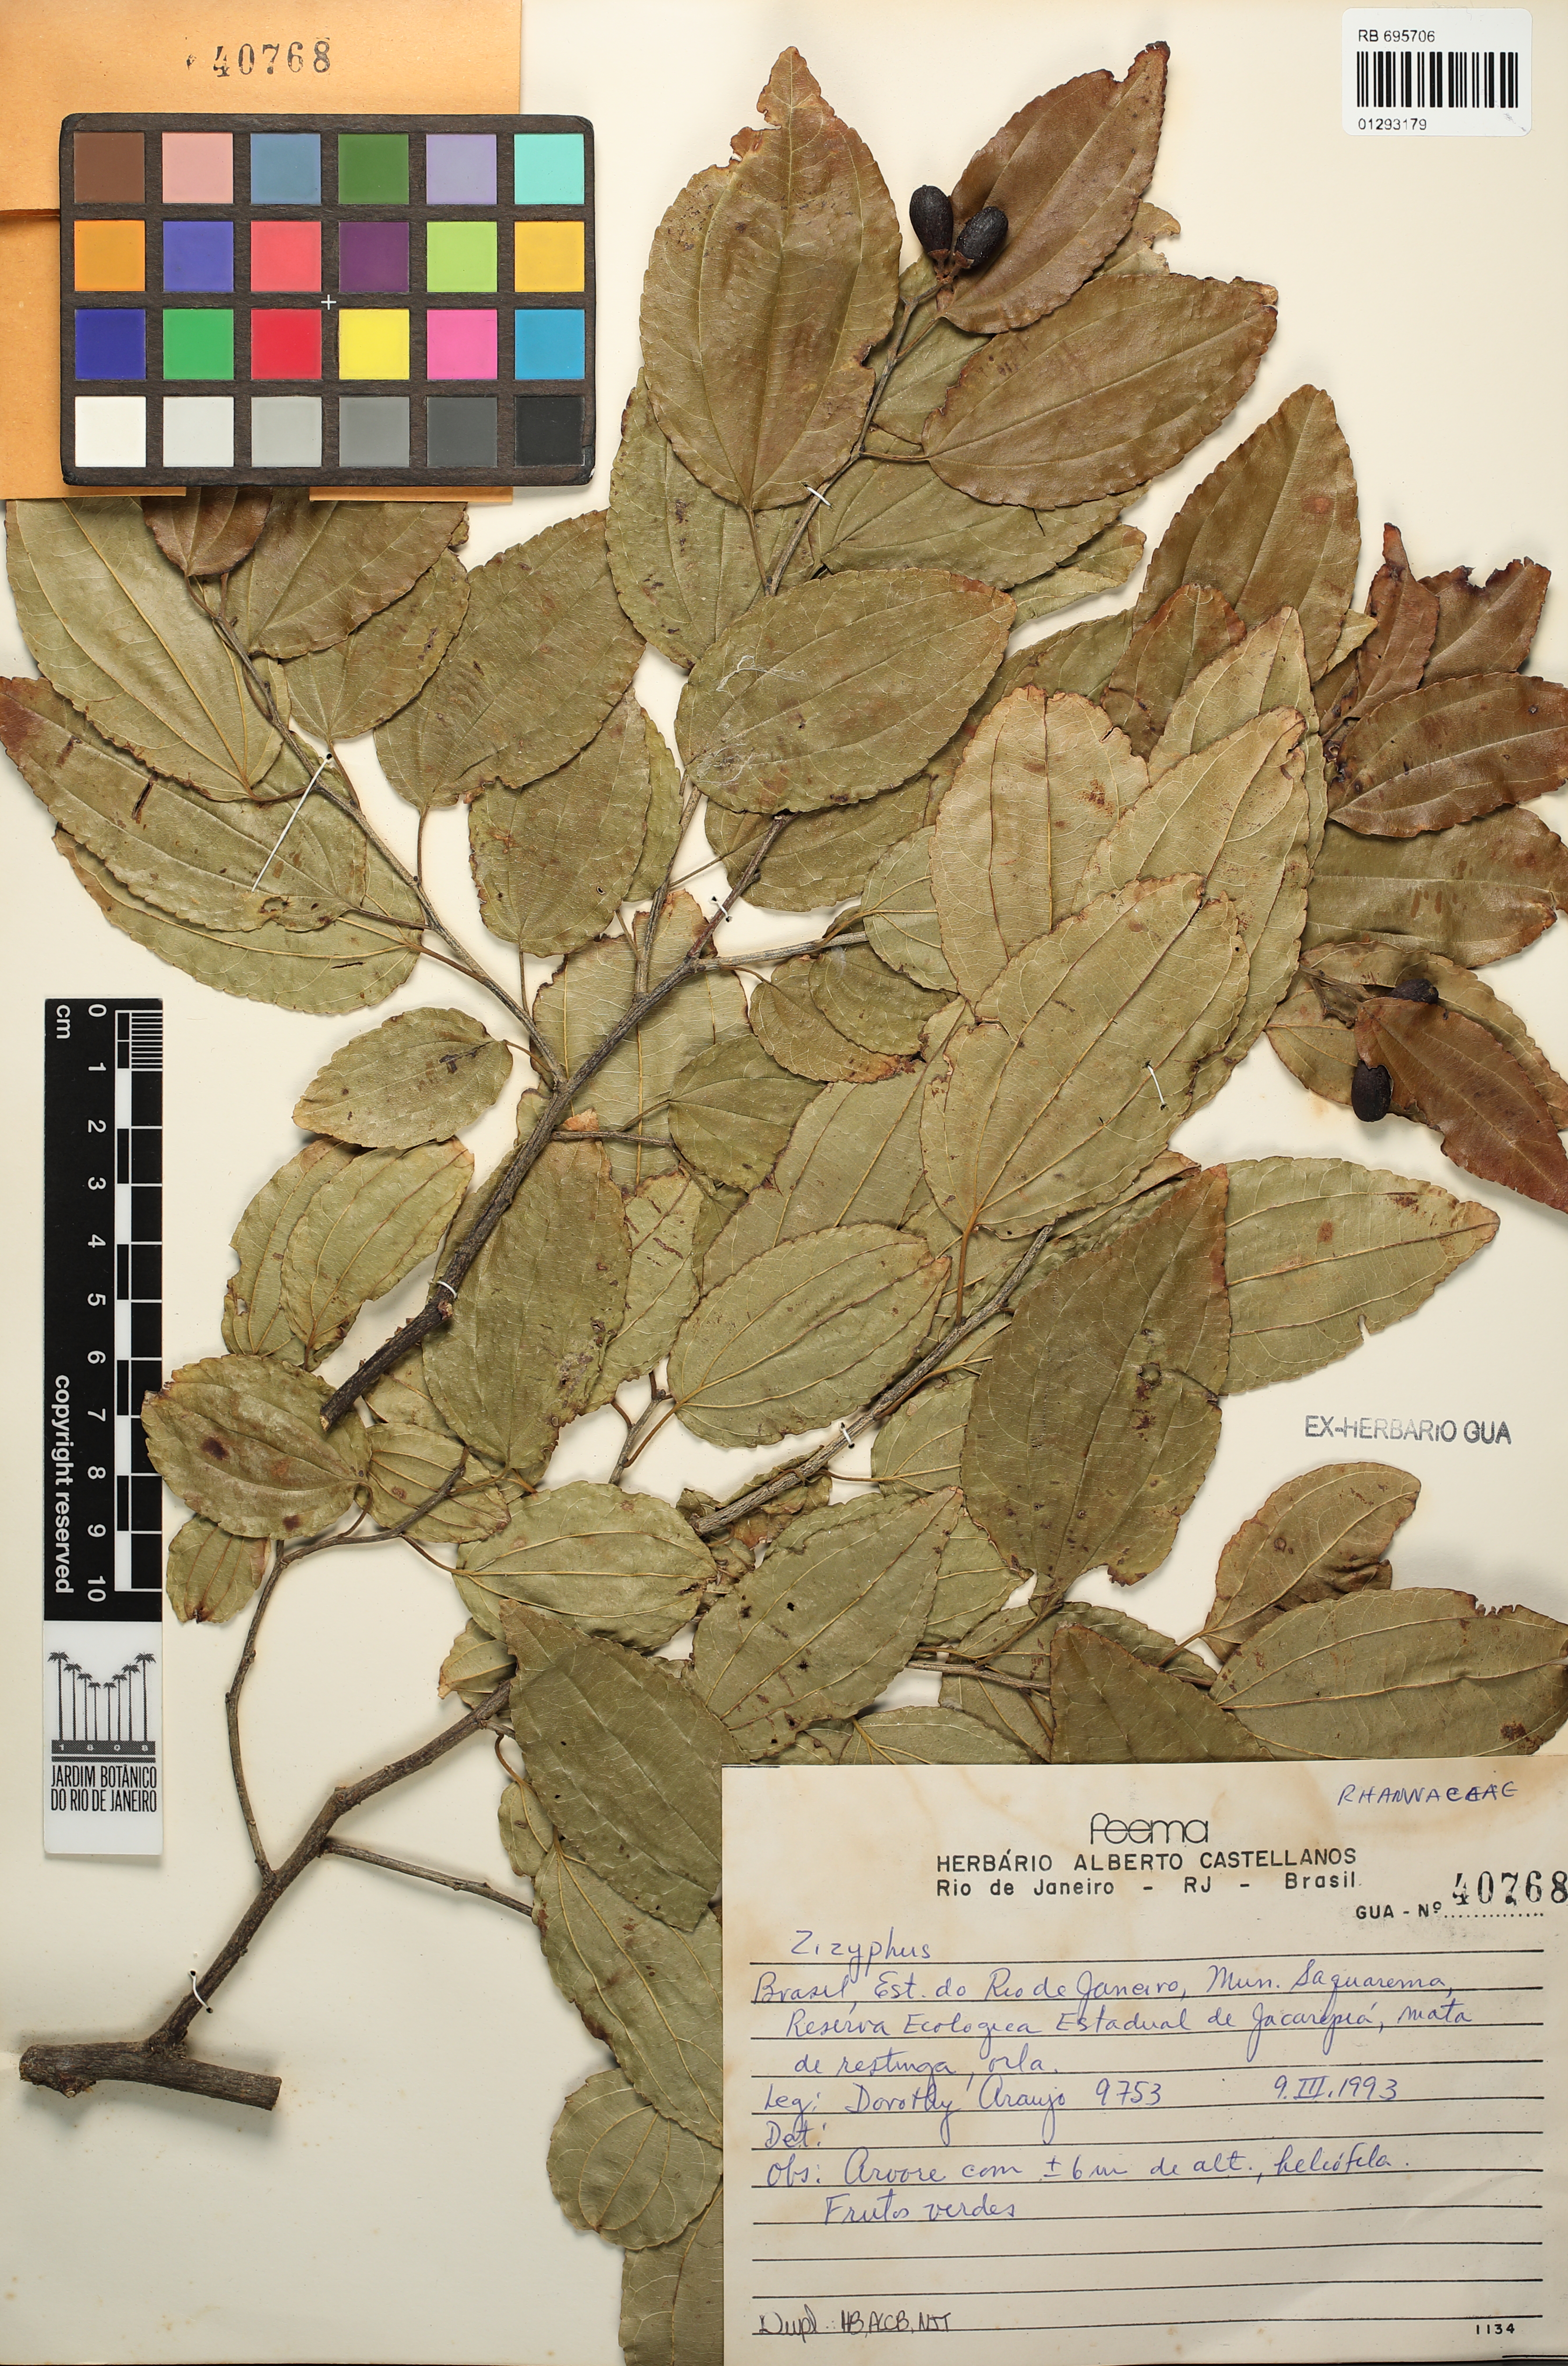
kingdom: Plantae
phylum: Tracheophyta
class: Magnoliopsida
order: Rosales
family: Rhamnaceae
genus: Ziziphus
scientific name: Ziziphus
